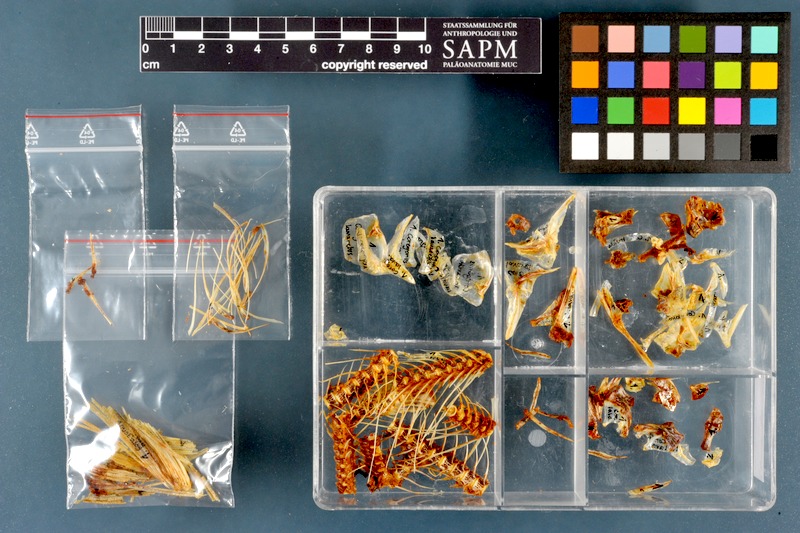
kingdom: Animalia
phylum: Chordata
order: Salmoniformes
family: Salmonidae
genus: Coregonus
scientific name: Coregonus lavaretus
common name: Schelly
